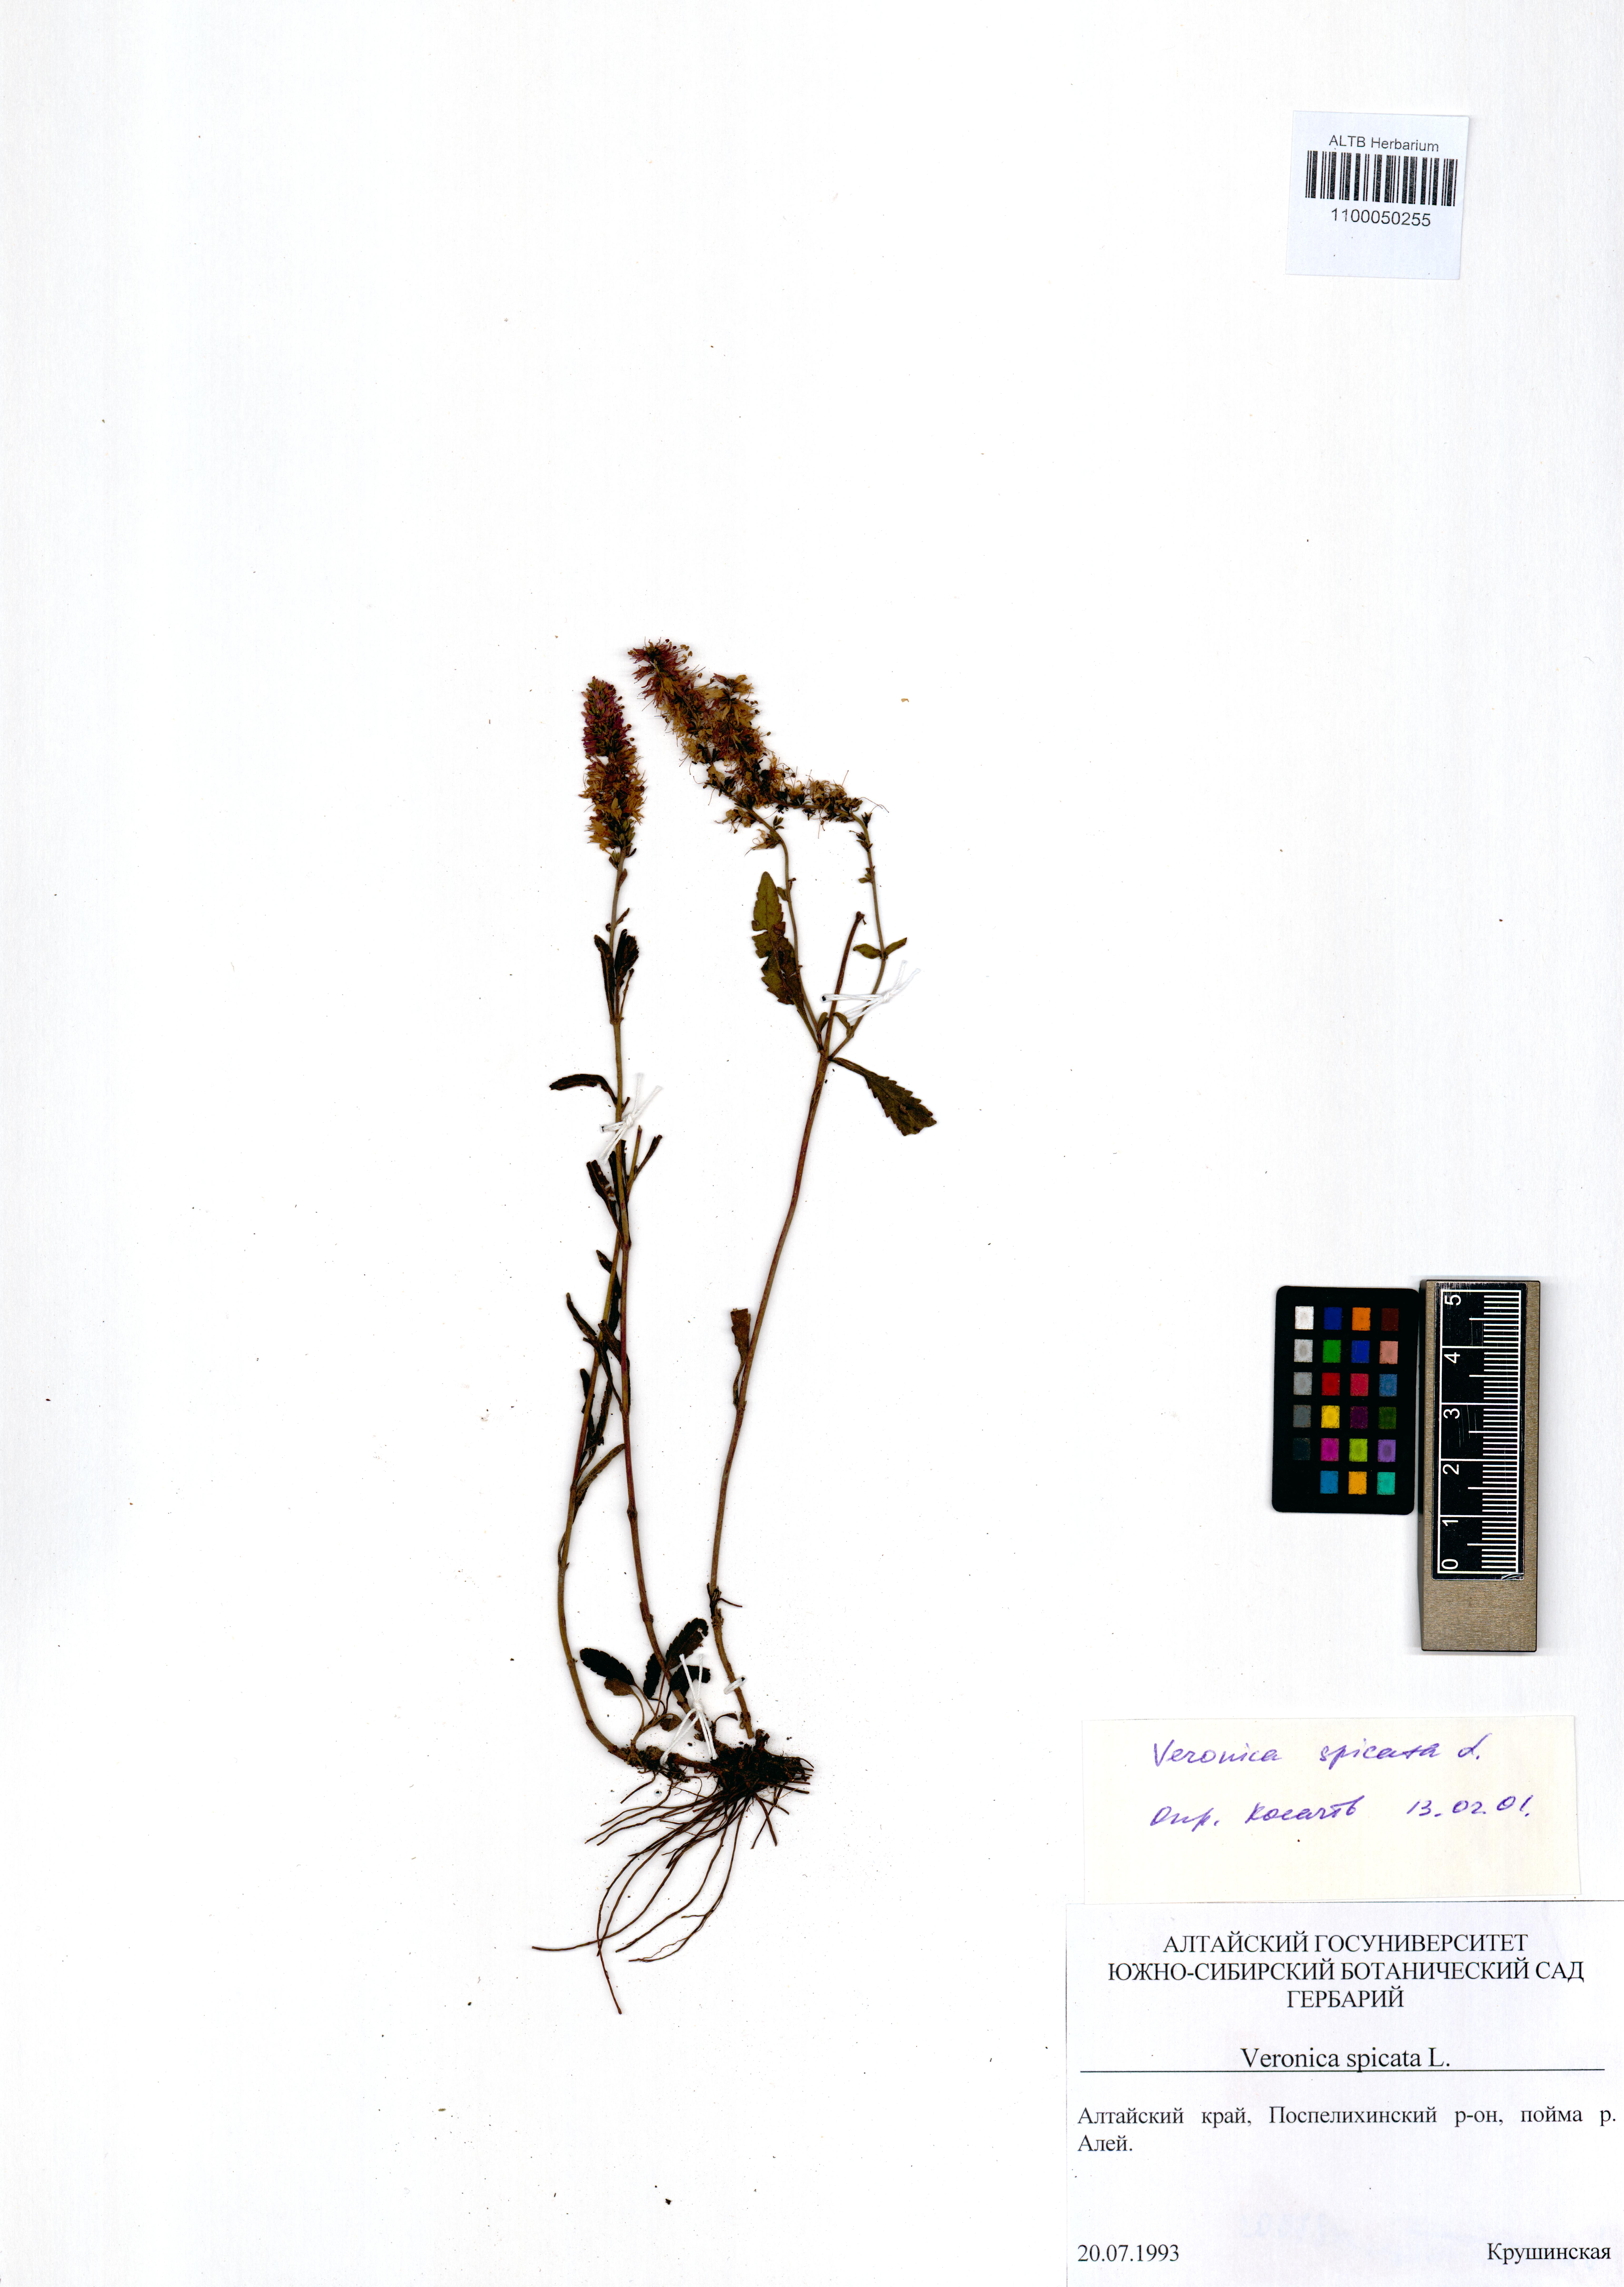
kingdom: Plantae
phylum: Tracheophyta
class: Magnoliopsida
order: Lamiales
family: Plantaginaceae
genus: Veronica
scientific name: Veronica pinnata
